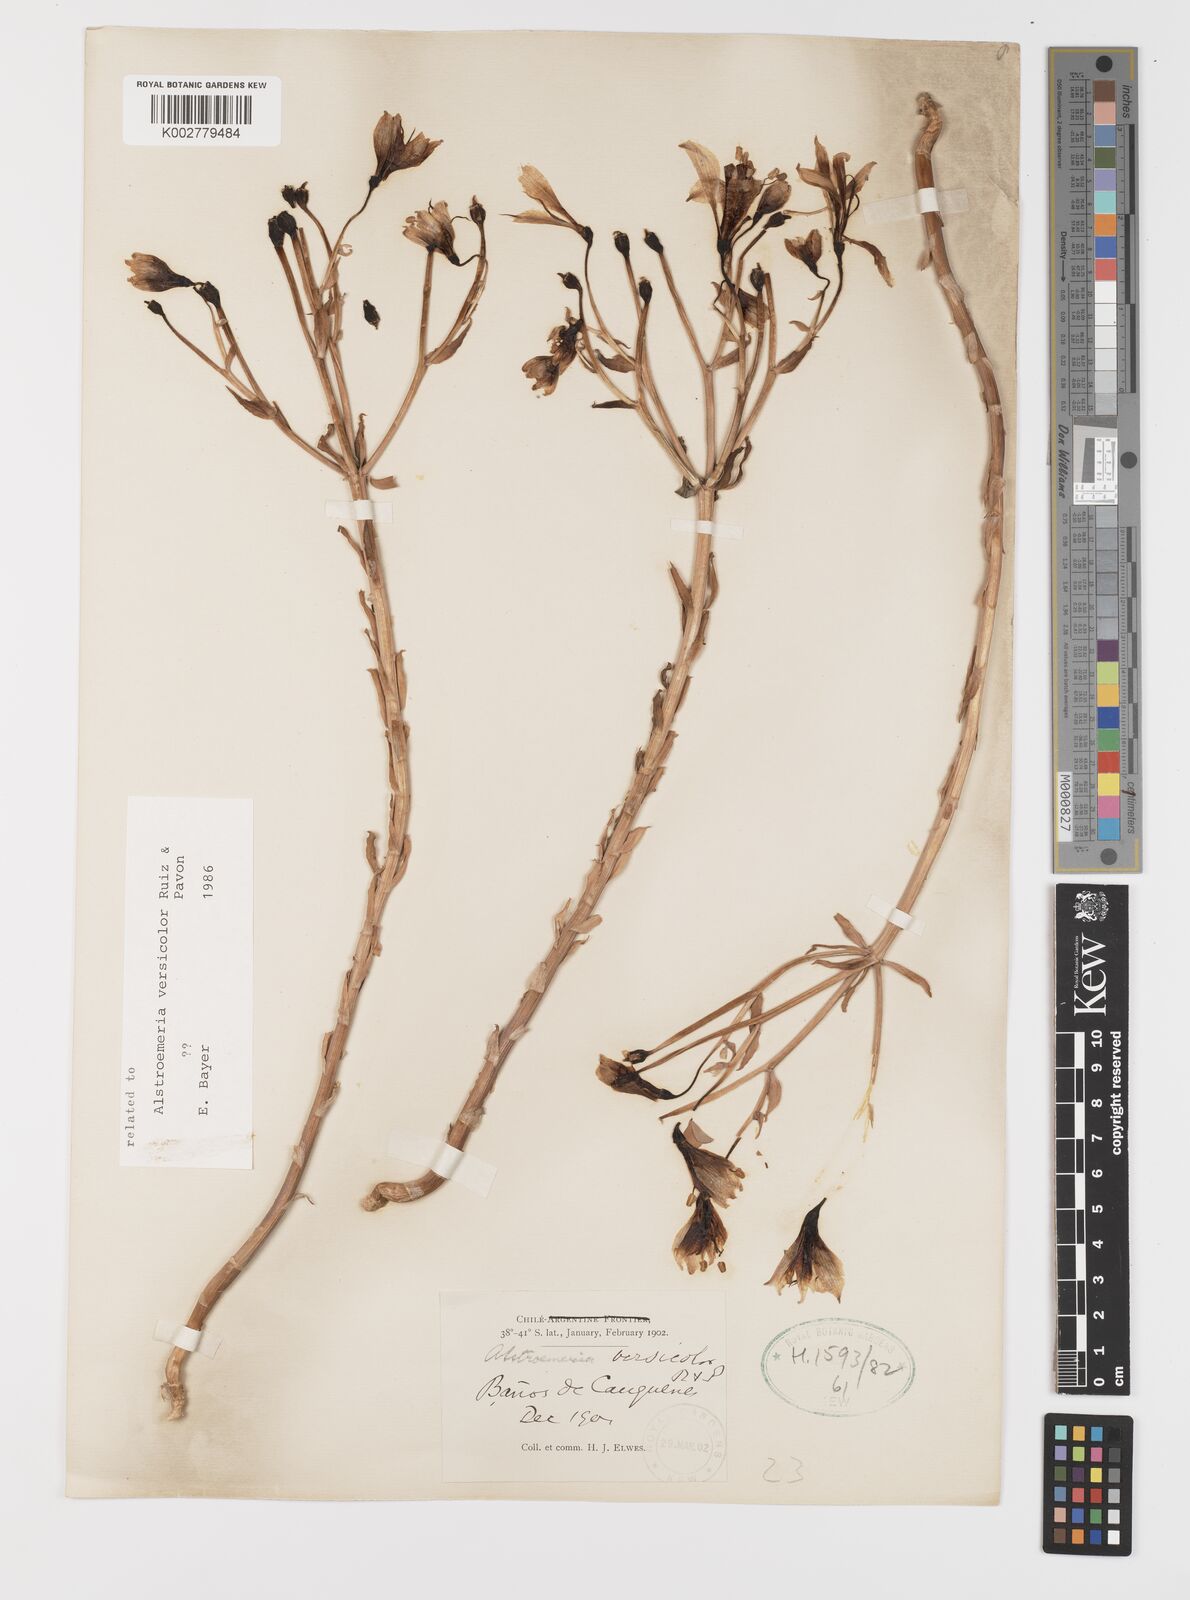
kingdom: Plantae
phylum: Tracheophyta
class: Liliopsida
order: Liliales
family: Alstroemeriaceae
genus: Alstroemeria
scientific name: Alstroemeria versicolor
